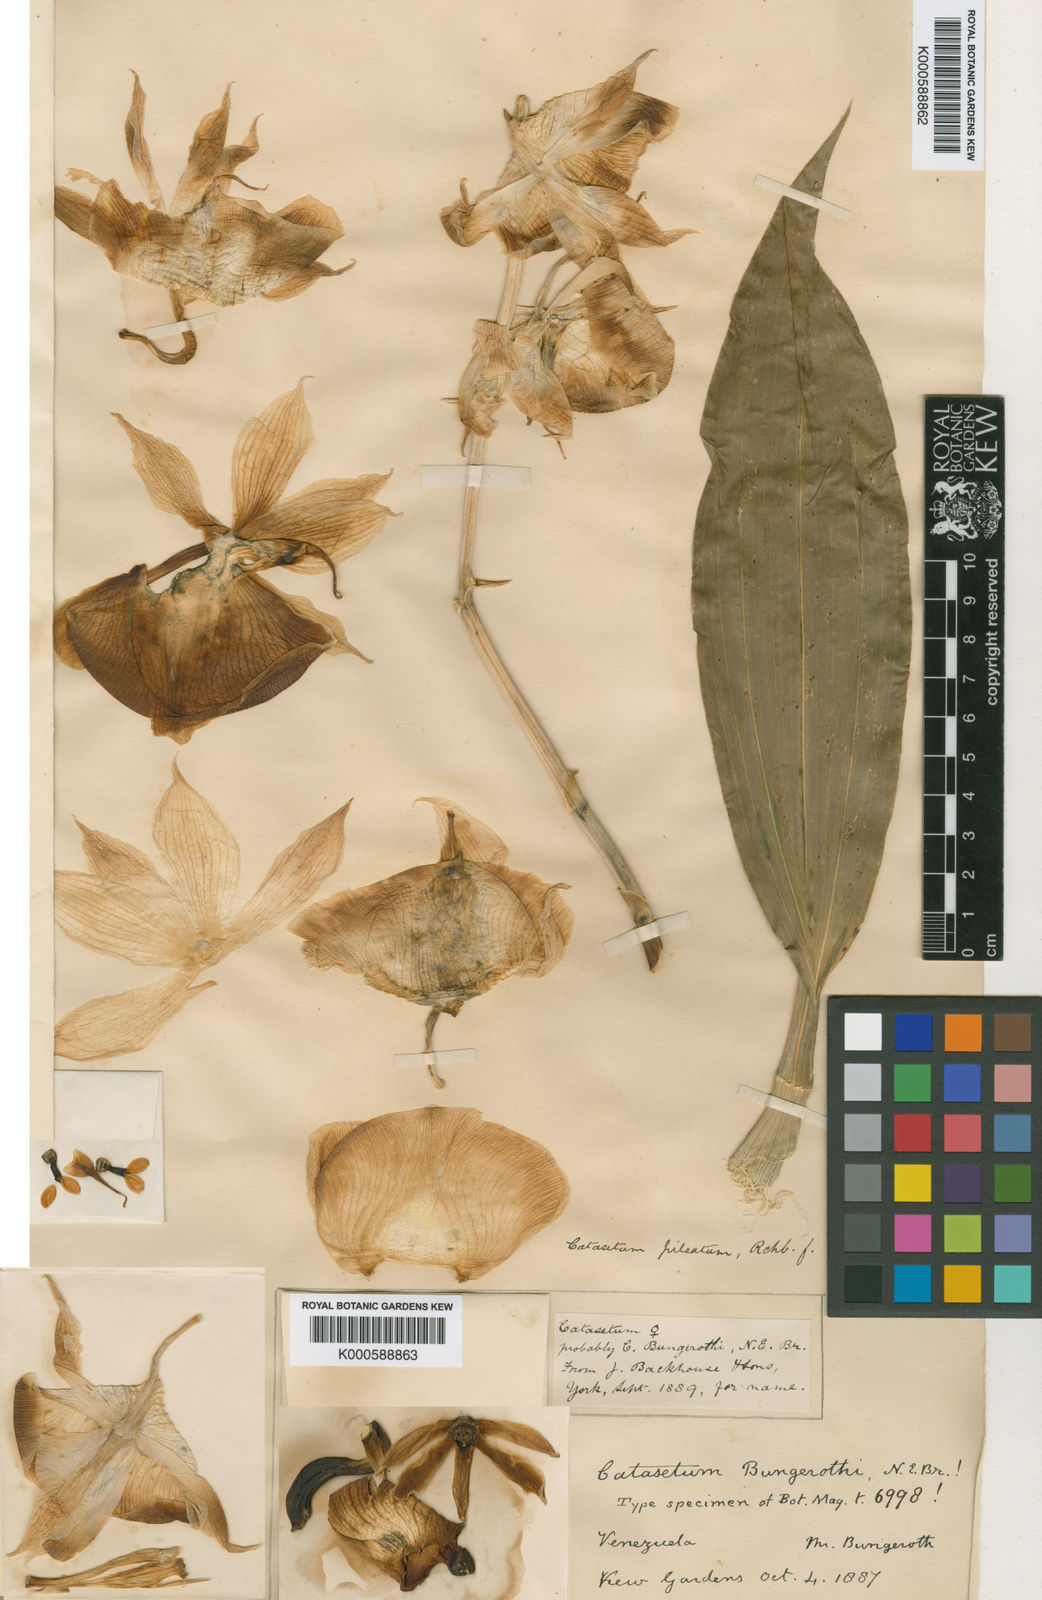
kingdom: Plantae
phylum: Tracheophyta
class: Liliopsida
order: Asparagales
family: Orchidaceae
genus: Catasetum
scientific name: Catasetum pileatum
